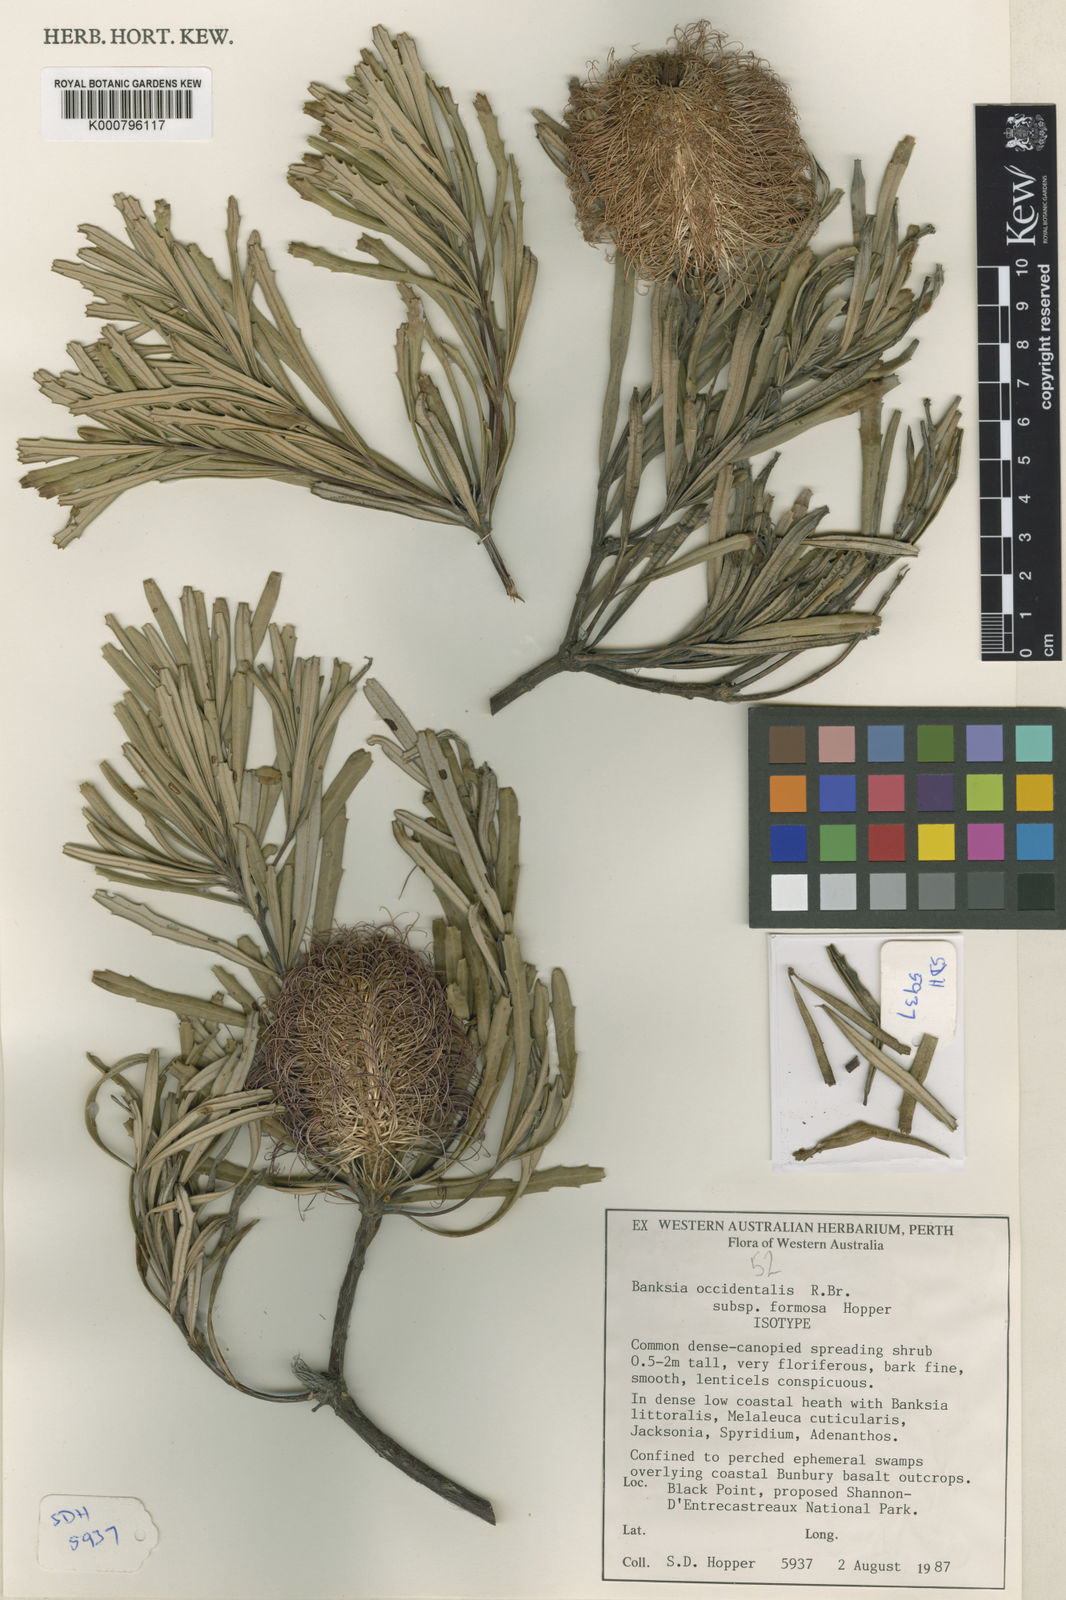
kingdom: Plantae
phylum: Tracheophyta
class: Magnoliopsida
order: Proteales
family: Proteaceae
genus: Banksia
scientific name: Banksia occidentalis
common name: Red swamp banksia
